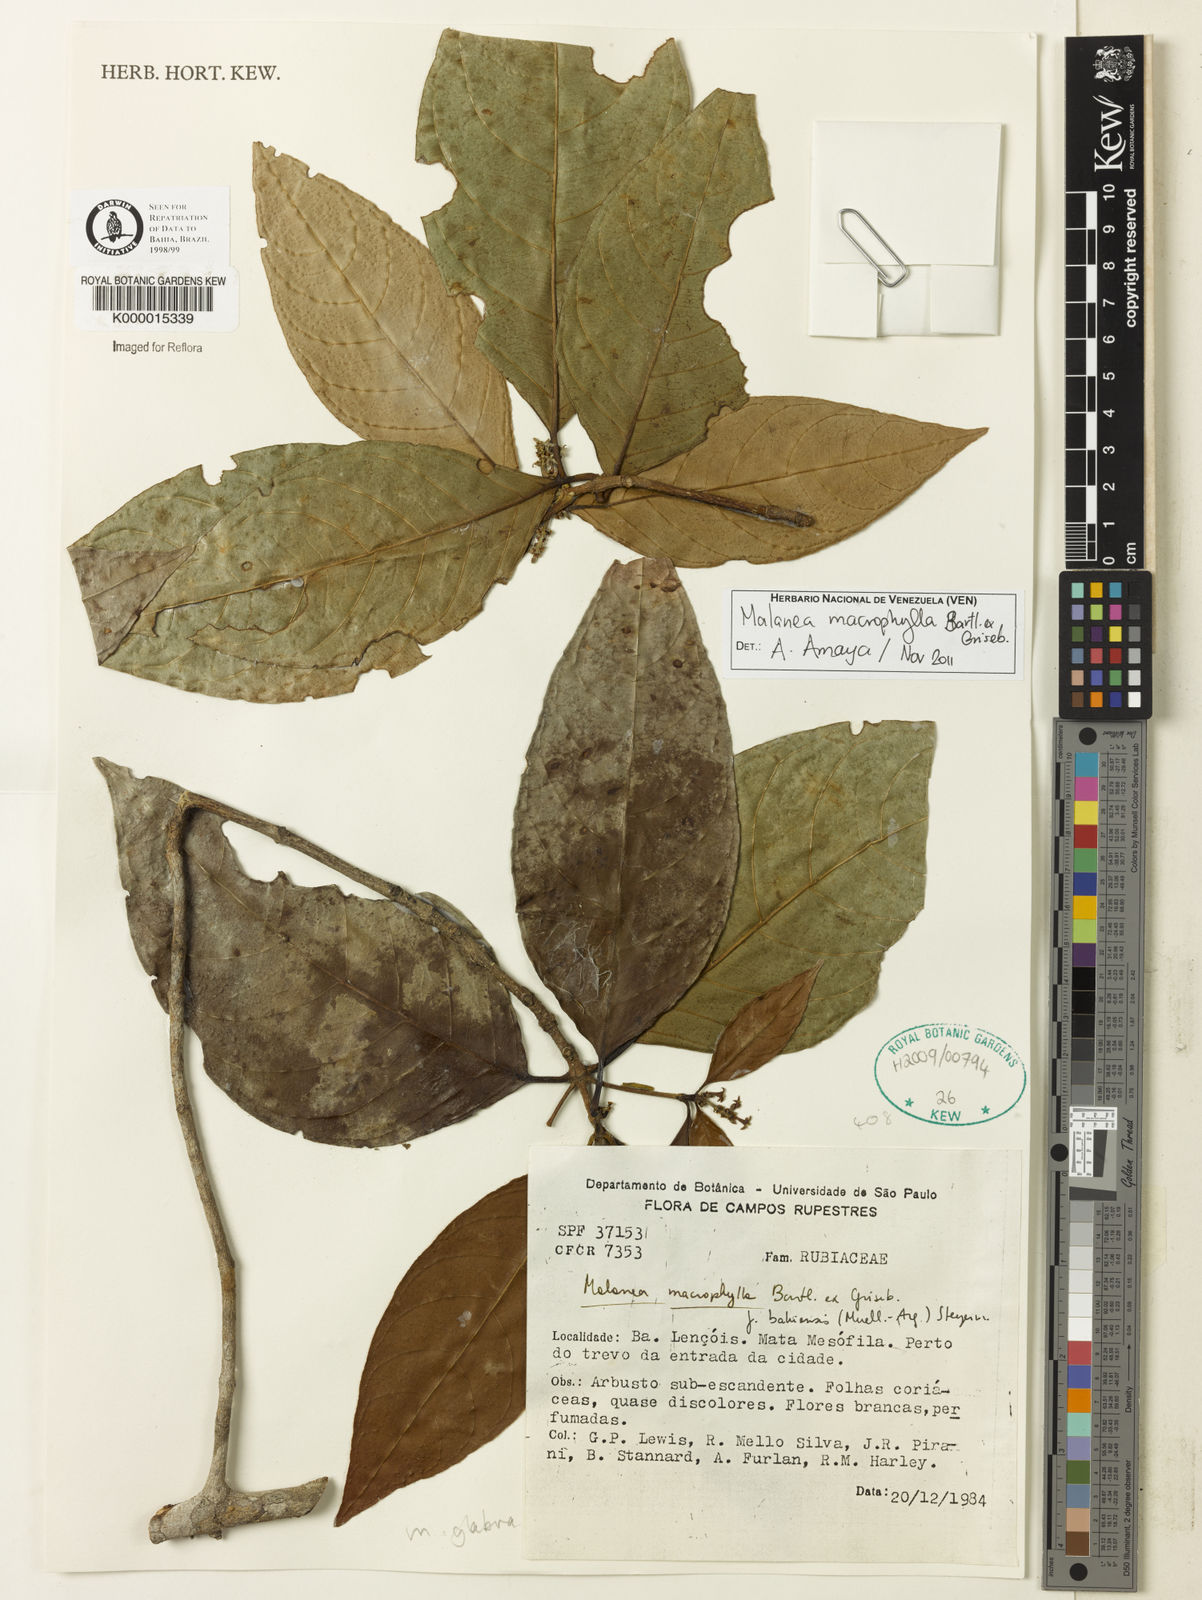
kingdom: Plantae
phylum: Tracheophyta
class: Magnoliopsida
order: Gentianales
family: Rubiaceae
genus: Malanea
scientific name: Malanea glabra
